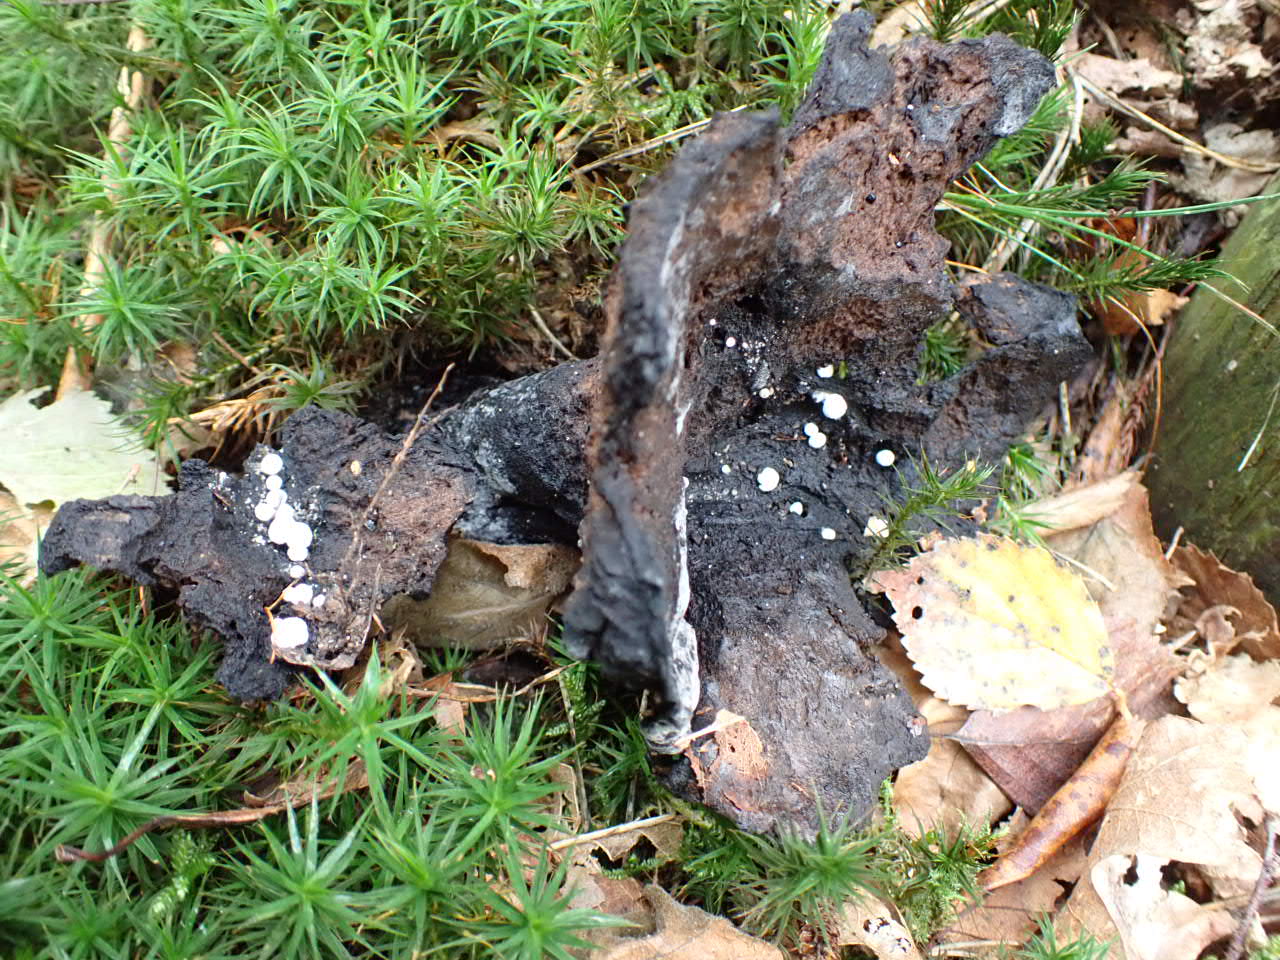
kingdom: Fungi
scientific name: Fungi
